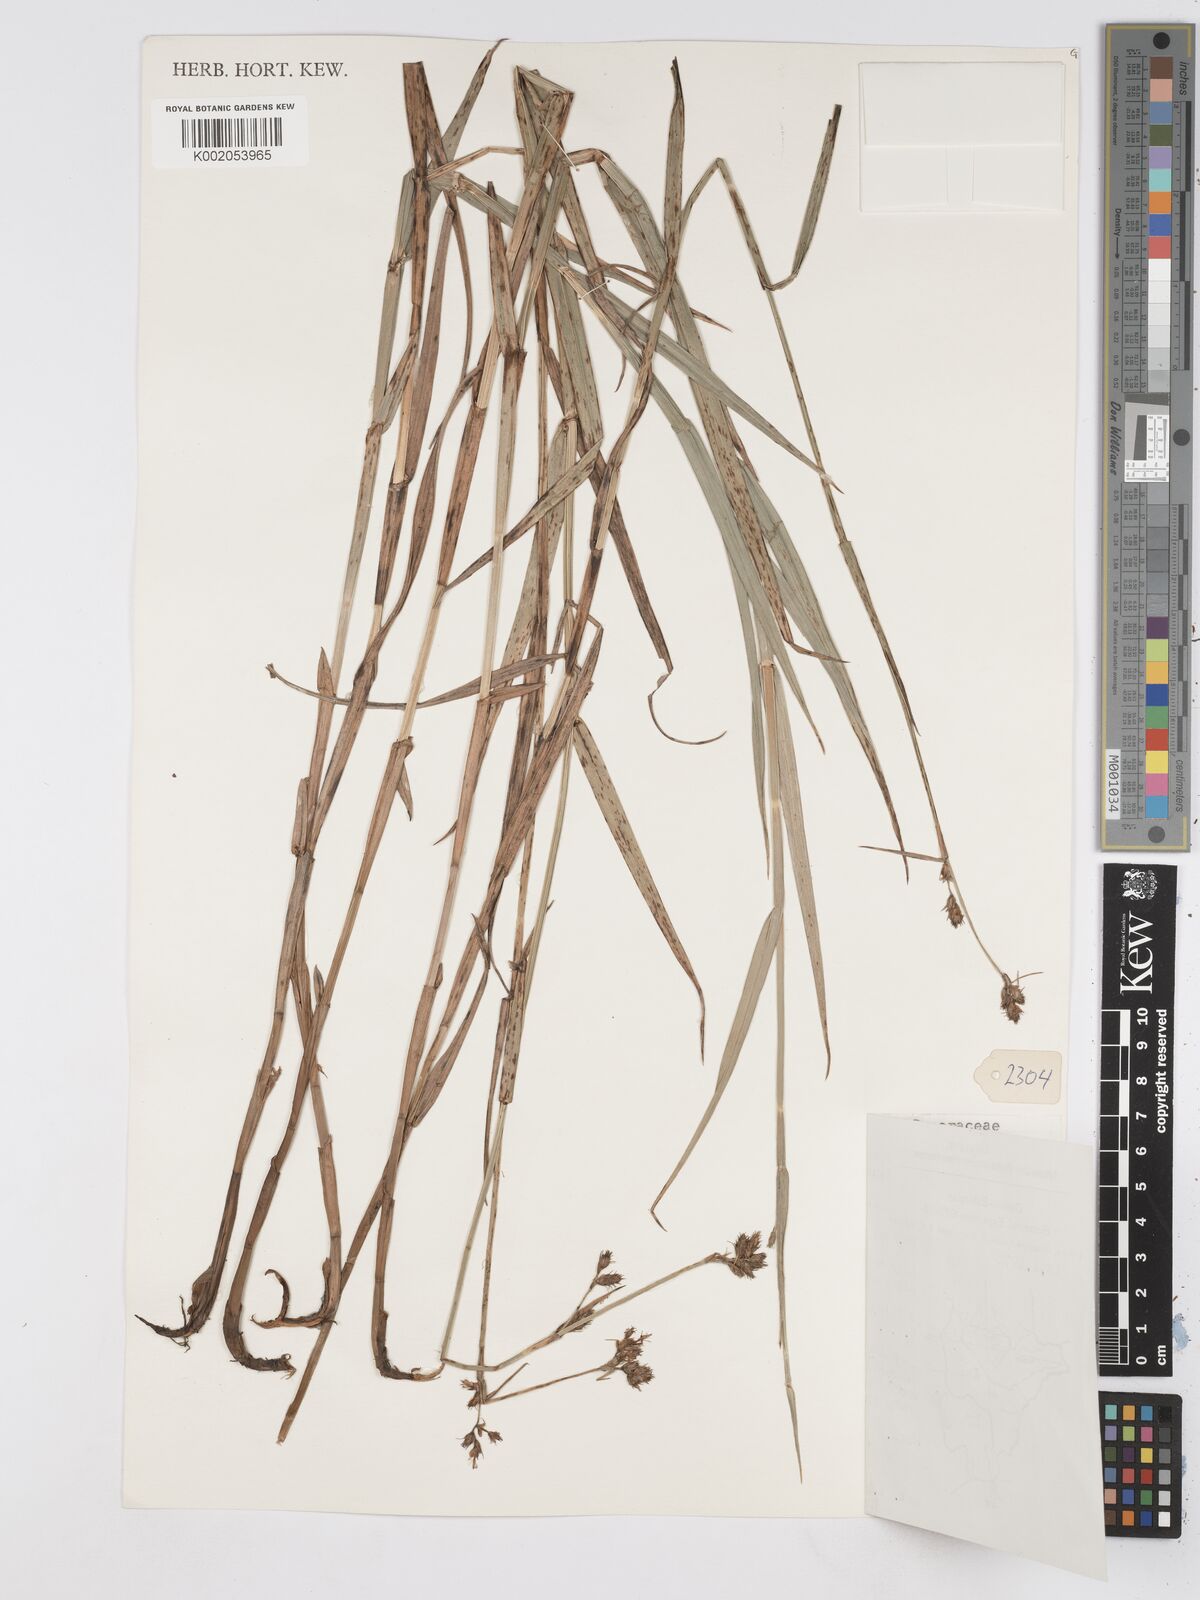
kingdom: Plantae
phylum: Tracheophyta
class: Liliopsida
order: Poales
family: Cyperaceae
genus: Fuirena
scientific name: Fuirena pubescens
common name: Hairy sedge
